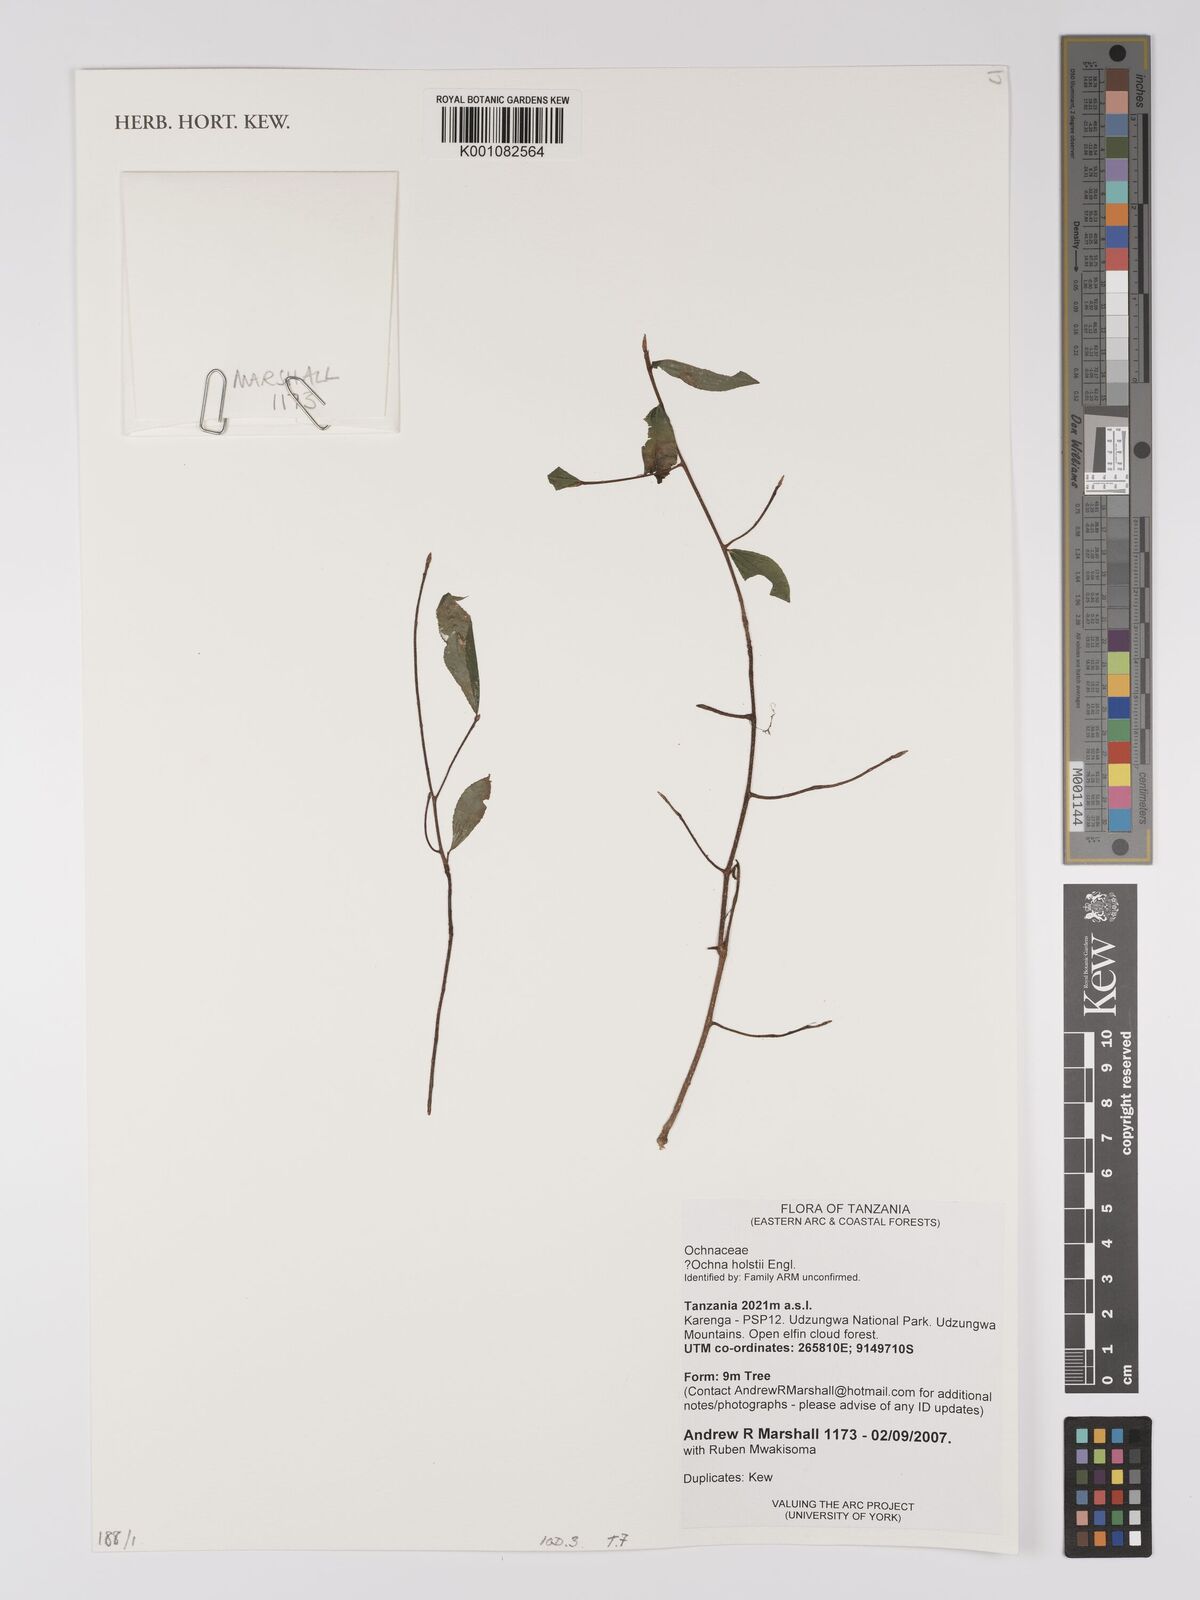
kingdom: Plantae
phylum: Tracheophyta
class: Magnoliopsida
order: Malpighiales
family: Ochnaceae
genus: Ochna
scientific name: Ochna holstii
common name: Red ironwood
